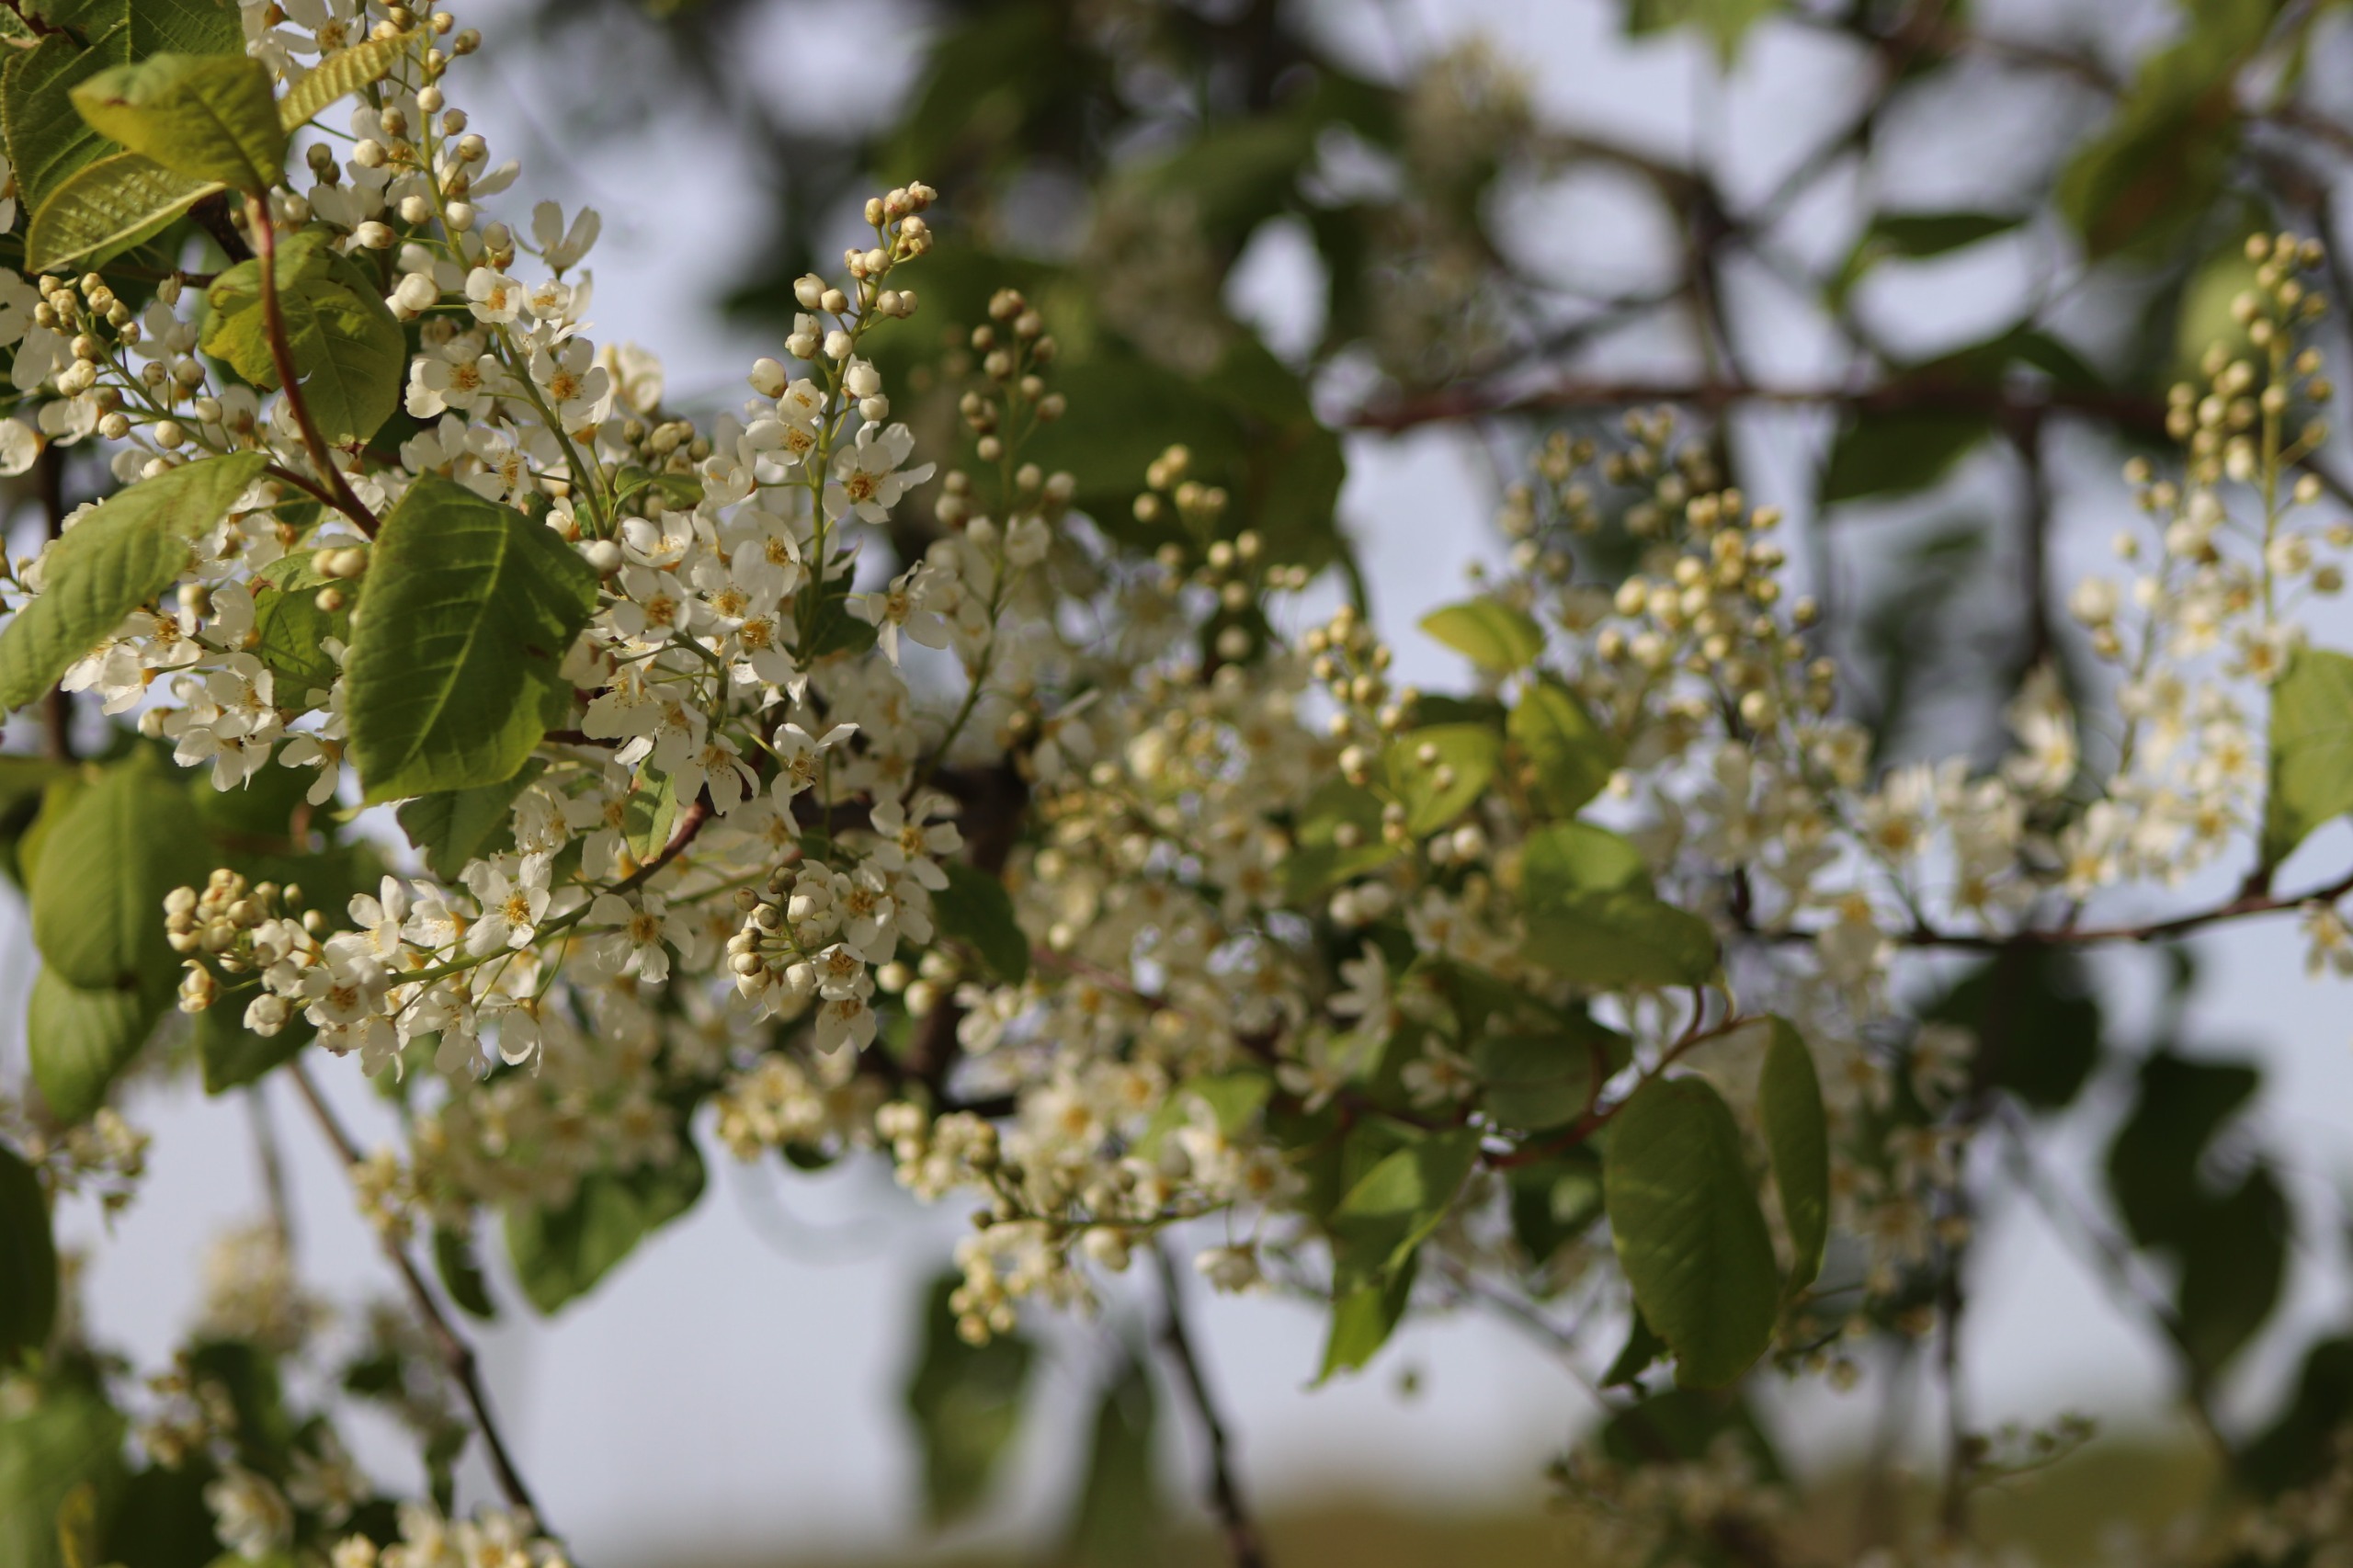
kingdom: Plantae
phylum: Tracheophyta
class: Magnoliopsida
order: Rosales
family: Rosaceae
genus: Prunus
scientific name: Prunus padus
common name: Almindelig hæg
